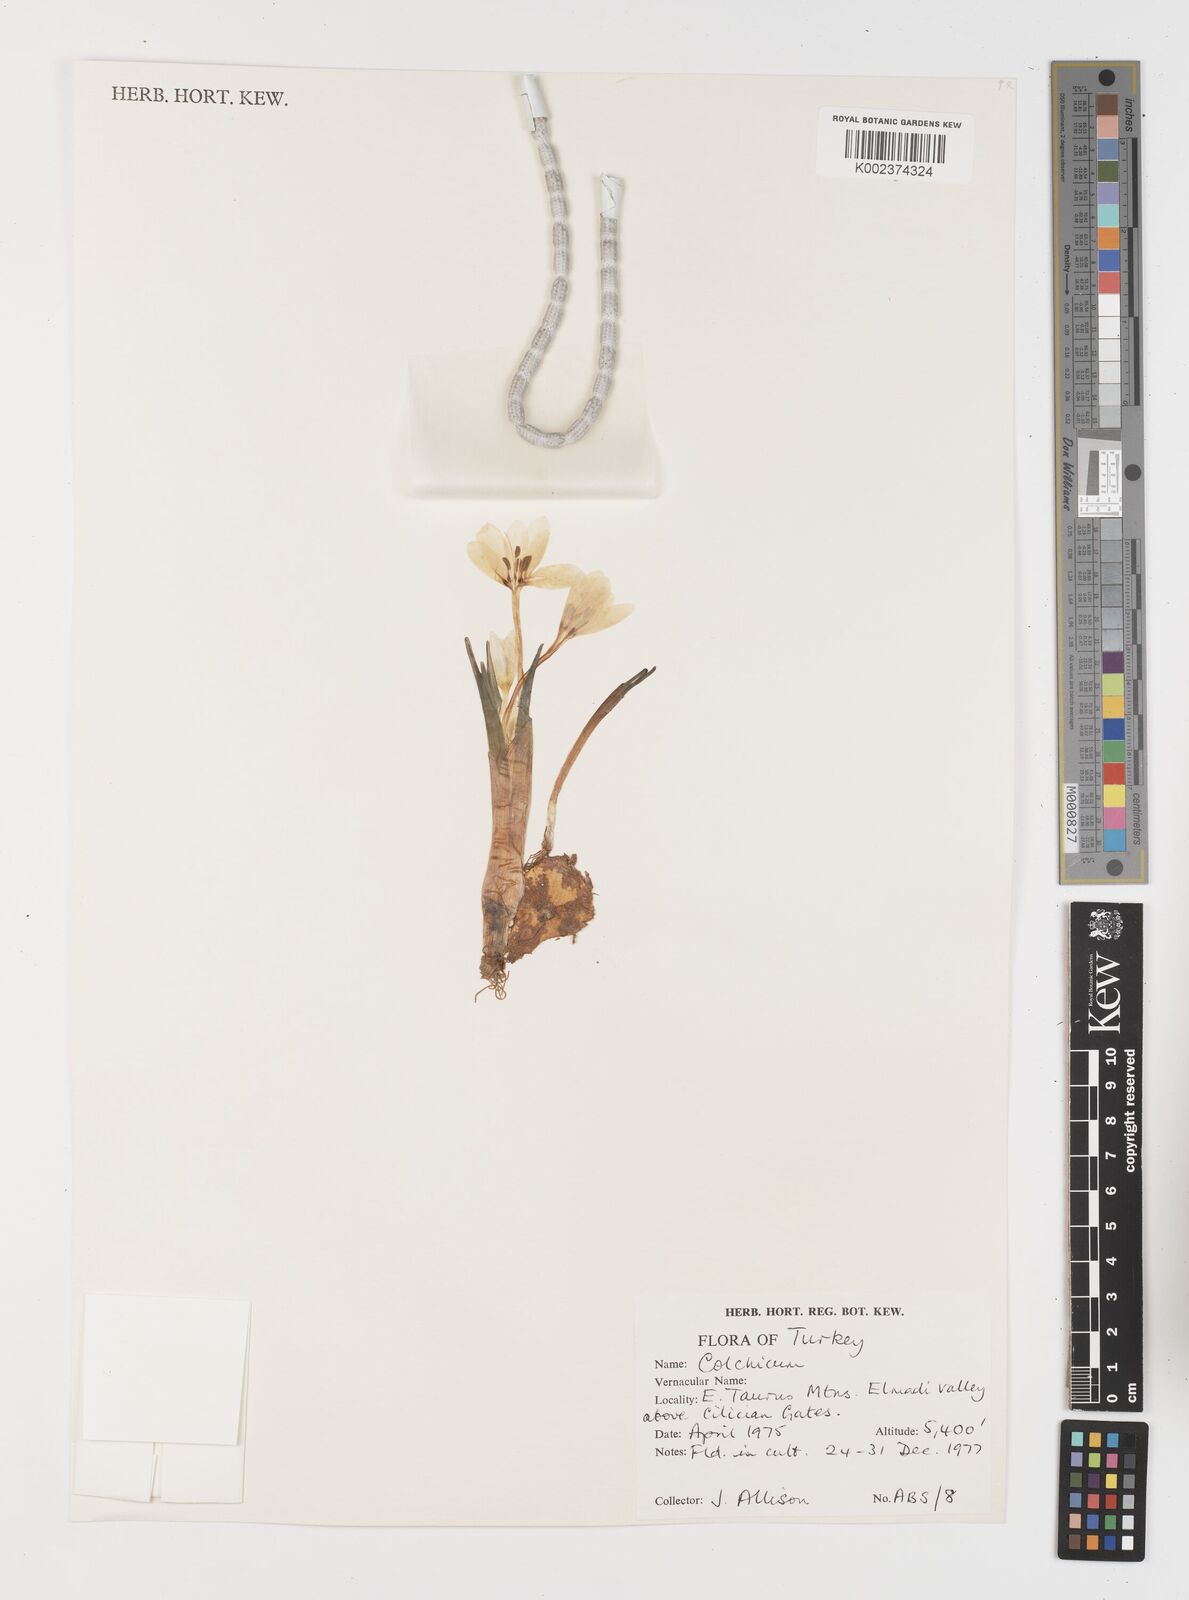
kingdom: Plantae
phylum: Tracheophyta
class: Liliopsida
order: Liliales
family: Colchicaceae
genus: Colchicum
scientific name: Colchicum
